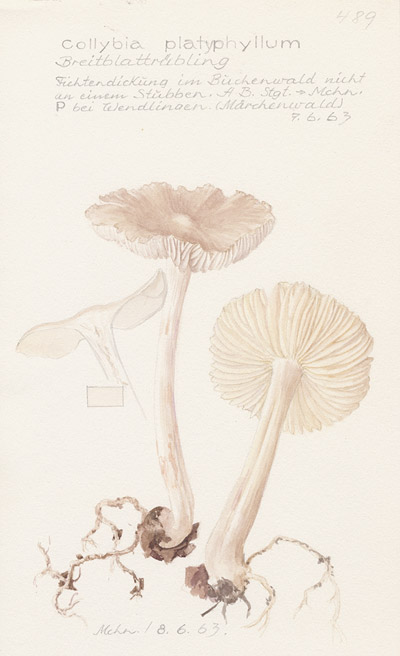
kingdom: Fungi
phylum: Basidiomycota
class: Agaricomycetes
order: Agaricales
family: Tricholomataceae
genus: Megacollybia
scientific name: Megacollybia platyphylla
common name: Whitelaced shank
